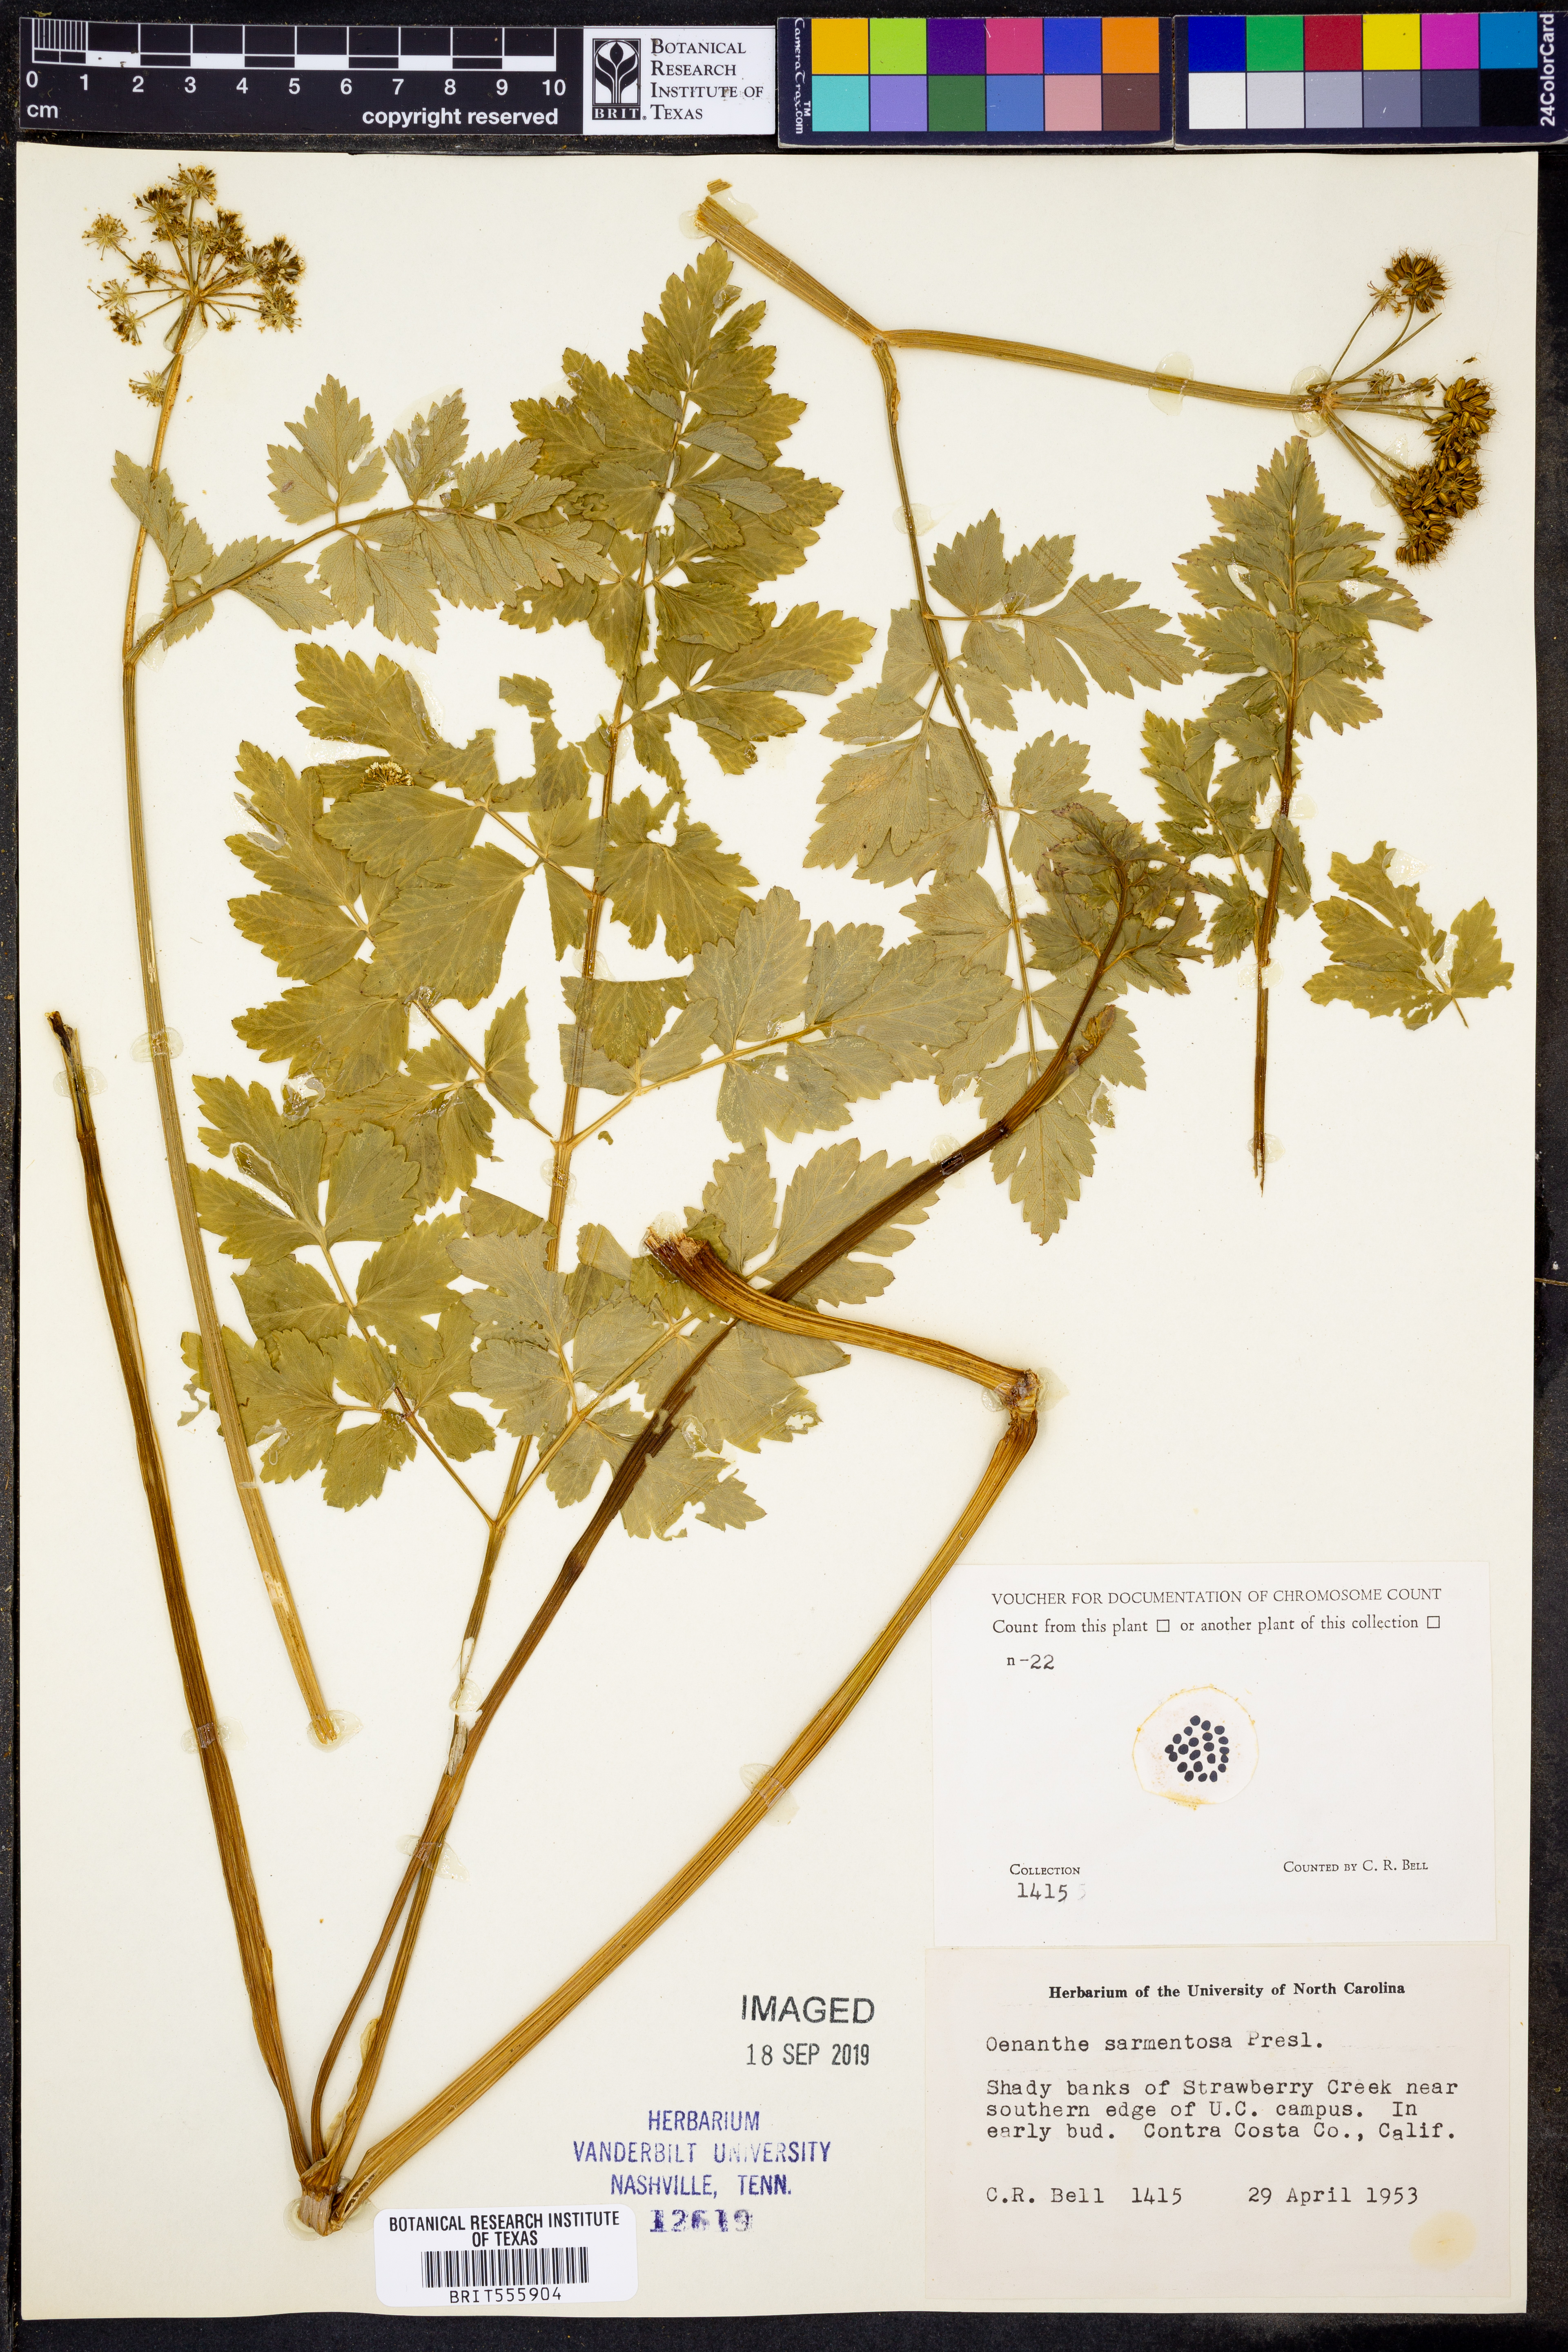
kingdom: Plantae
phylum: Tracheophyta
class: Magnoliopsida
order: Apiales
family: Apiaceae
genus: Oenanthe
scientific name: Oenanthe sarmentosa
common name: American water-parsley
